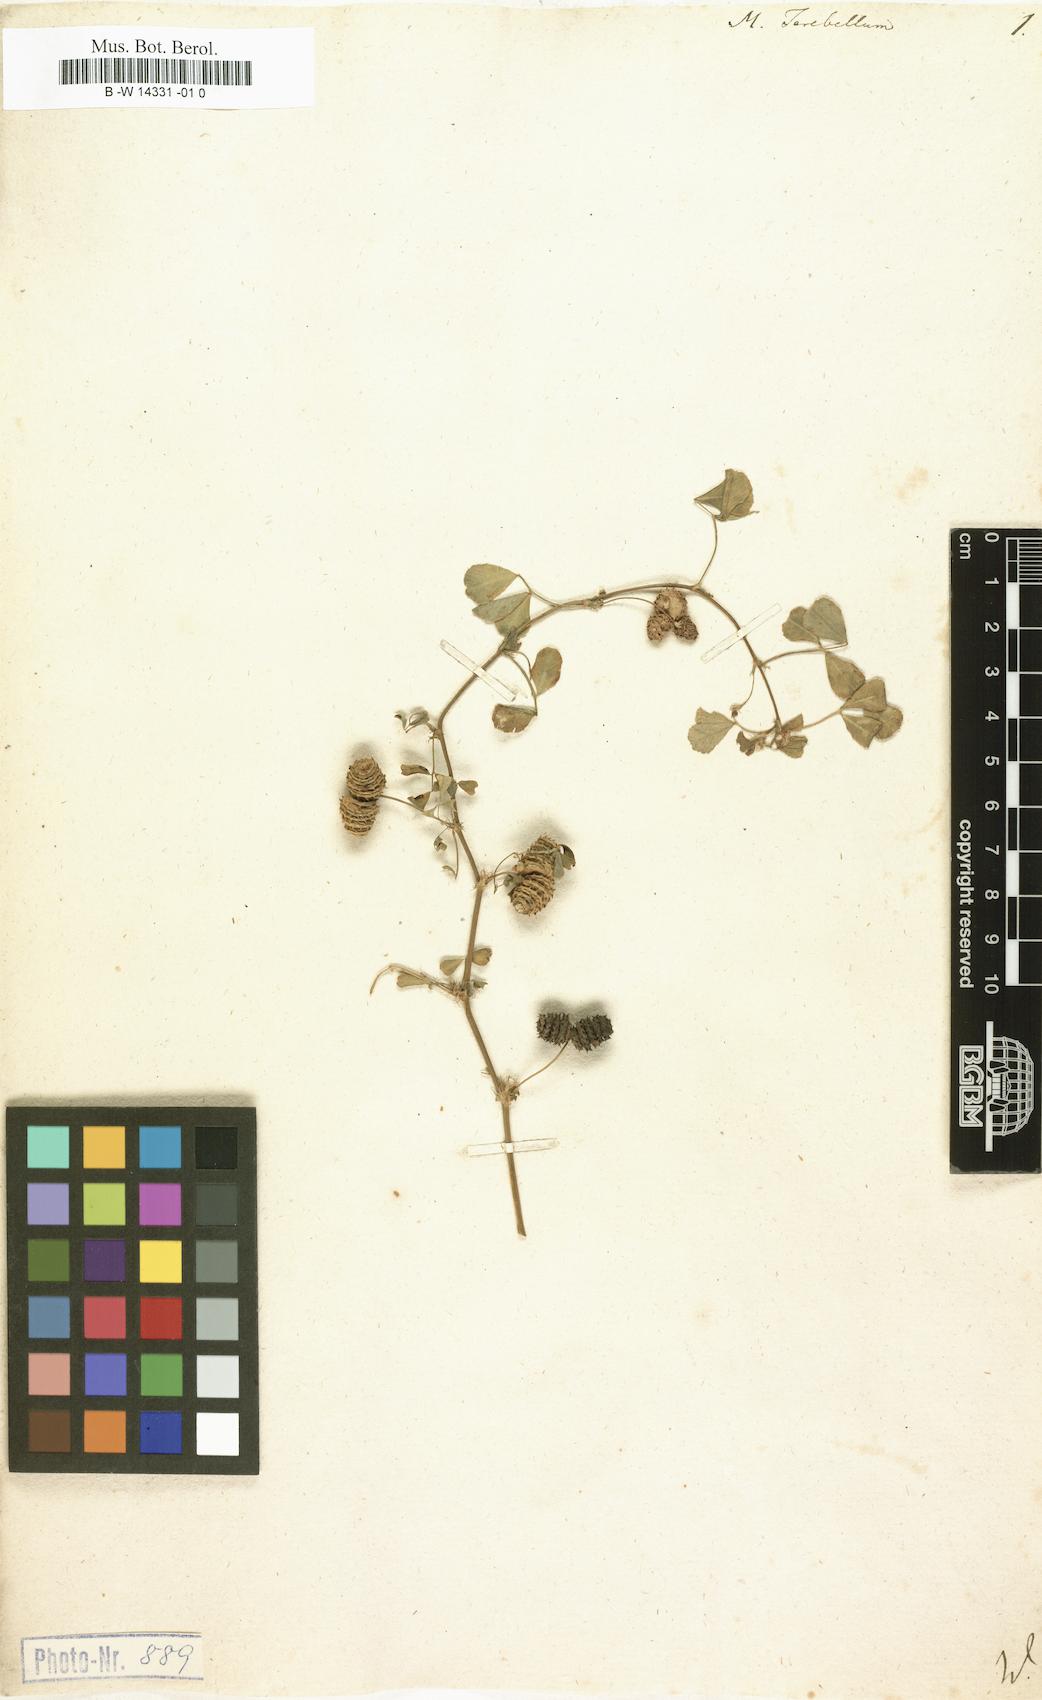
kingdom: Plantae
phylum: Tracheophyta
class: Magnoliopsida
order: Fabales
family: Fabaceae
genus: Medicago
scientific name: Medicago polymorpha
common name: Burclover
